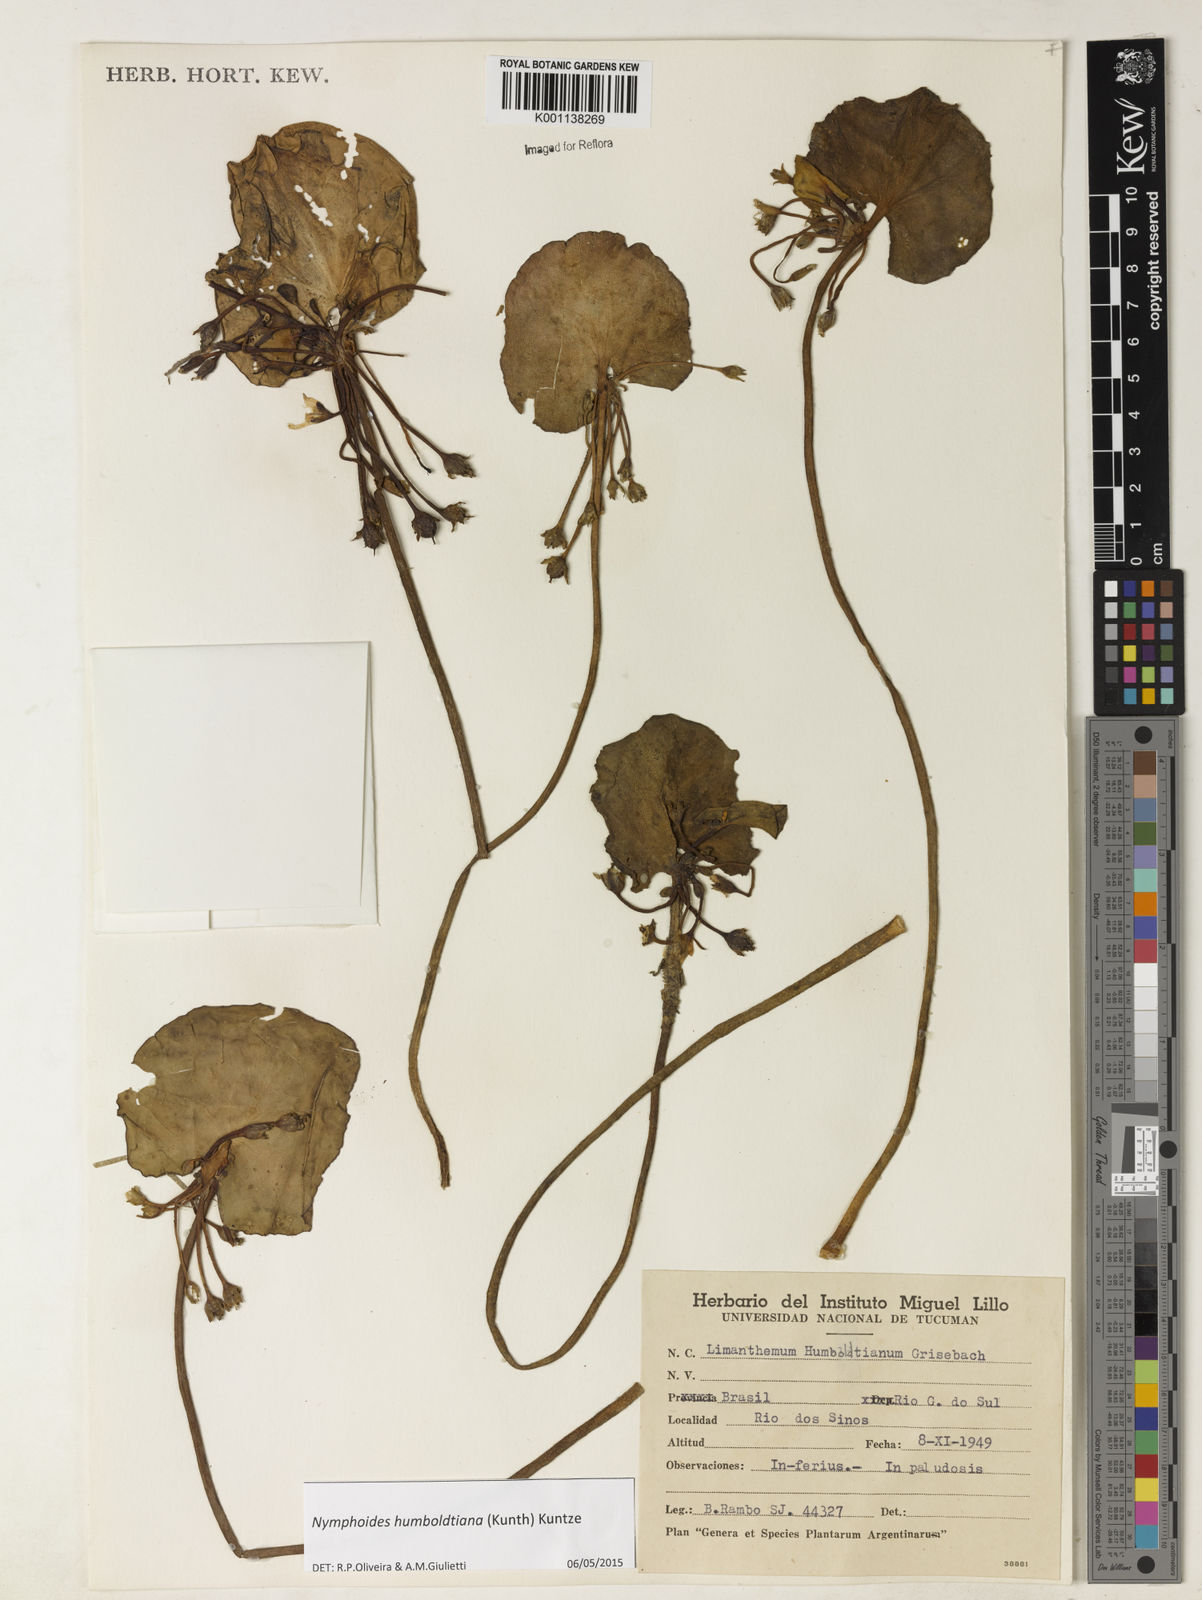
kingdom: Plantae
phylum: Tracheophyta
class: Magnoliopsida
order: Asterales
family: Menyanthaceae
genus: Nymphoides
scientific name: Nymphoides humboldtiana
